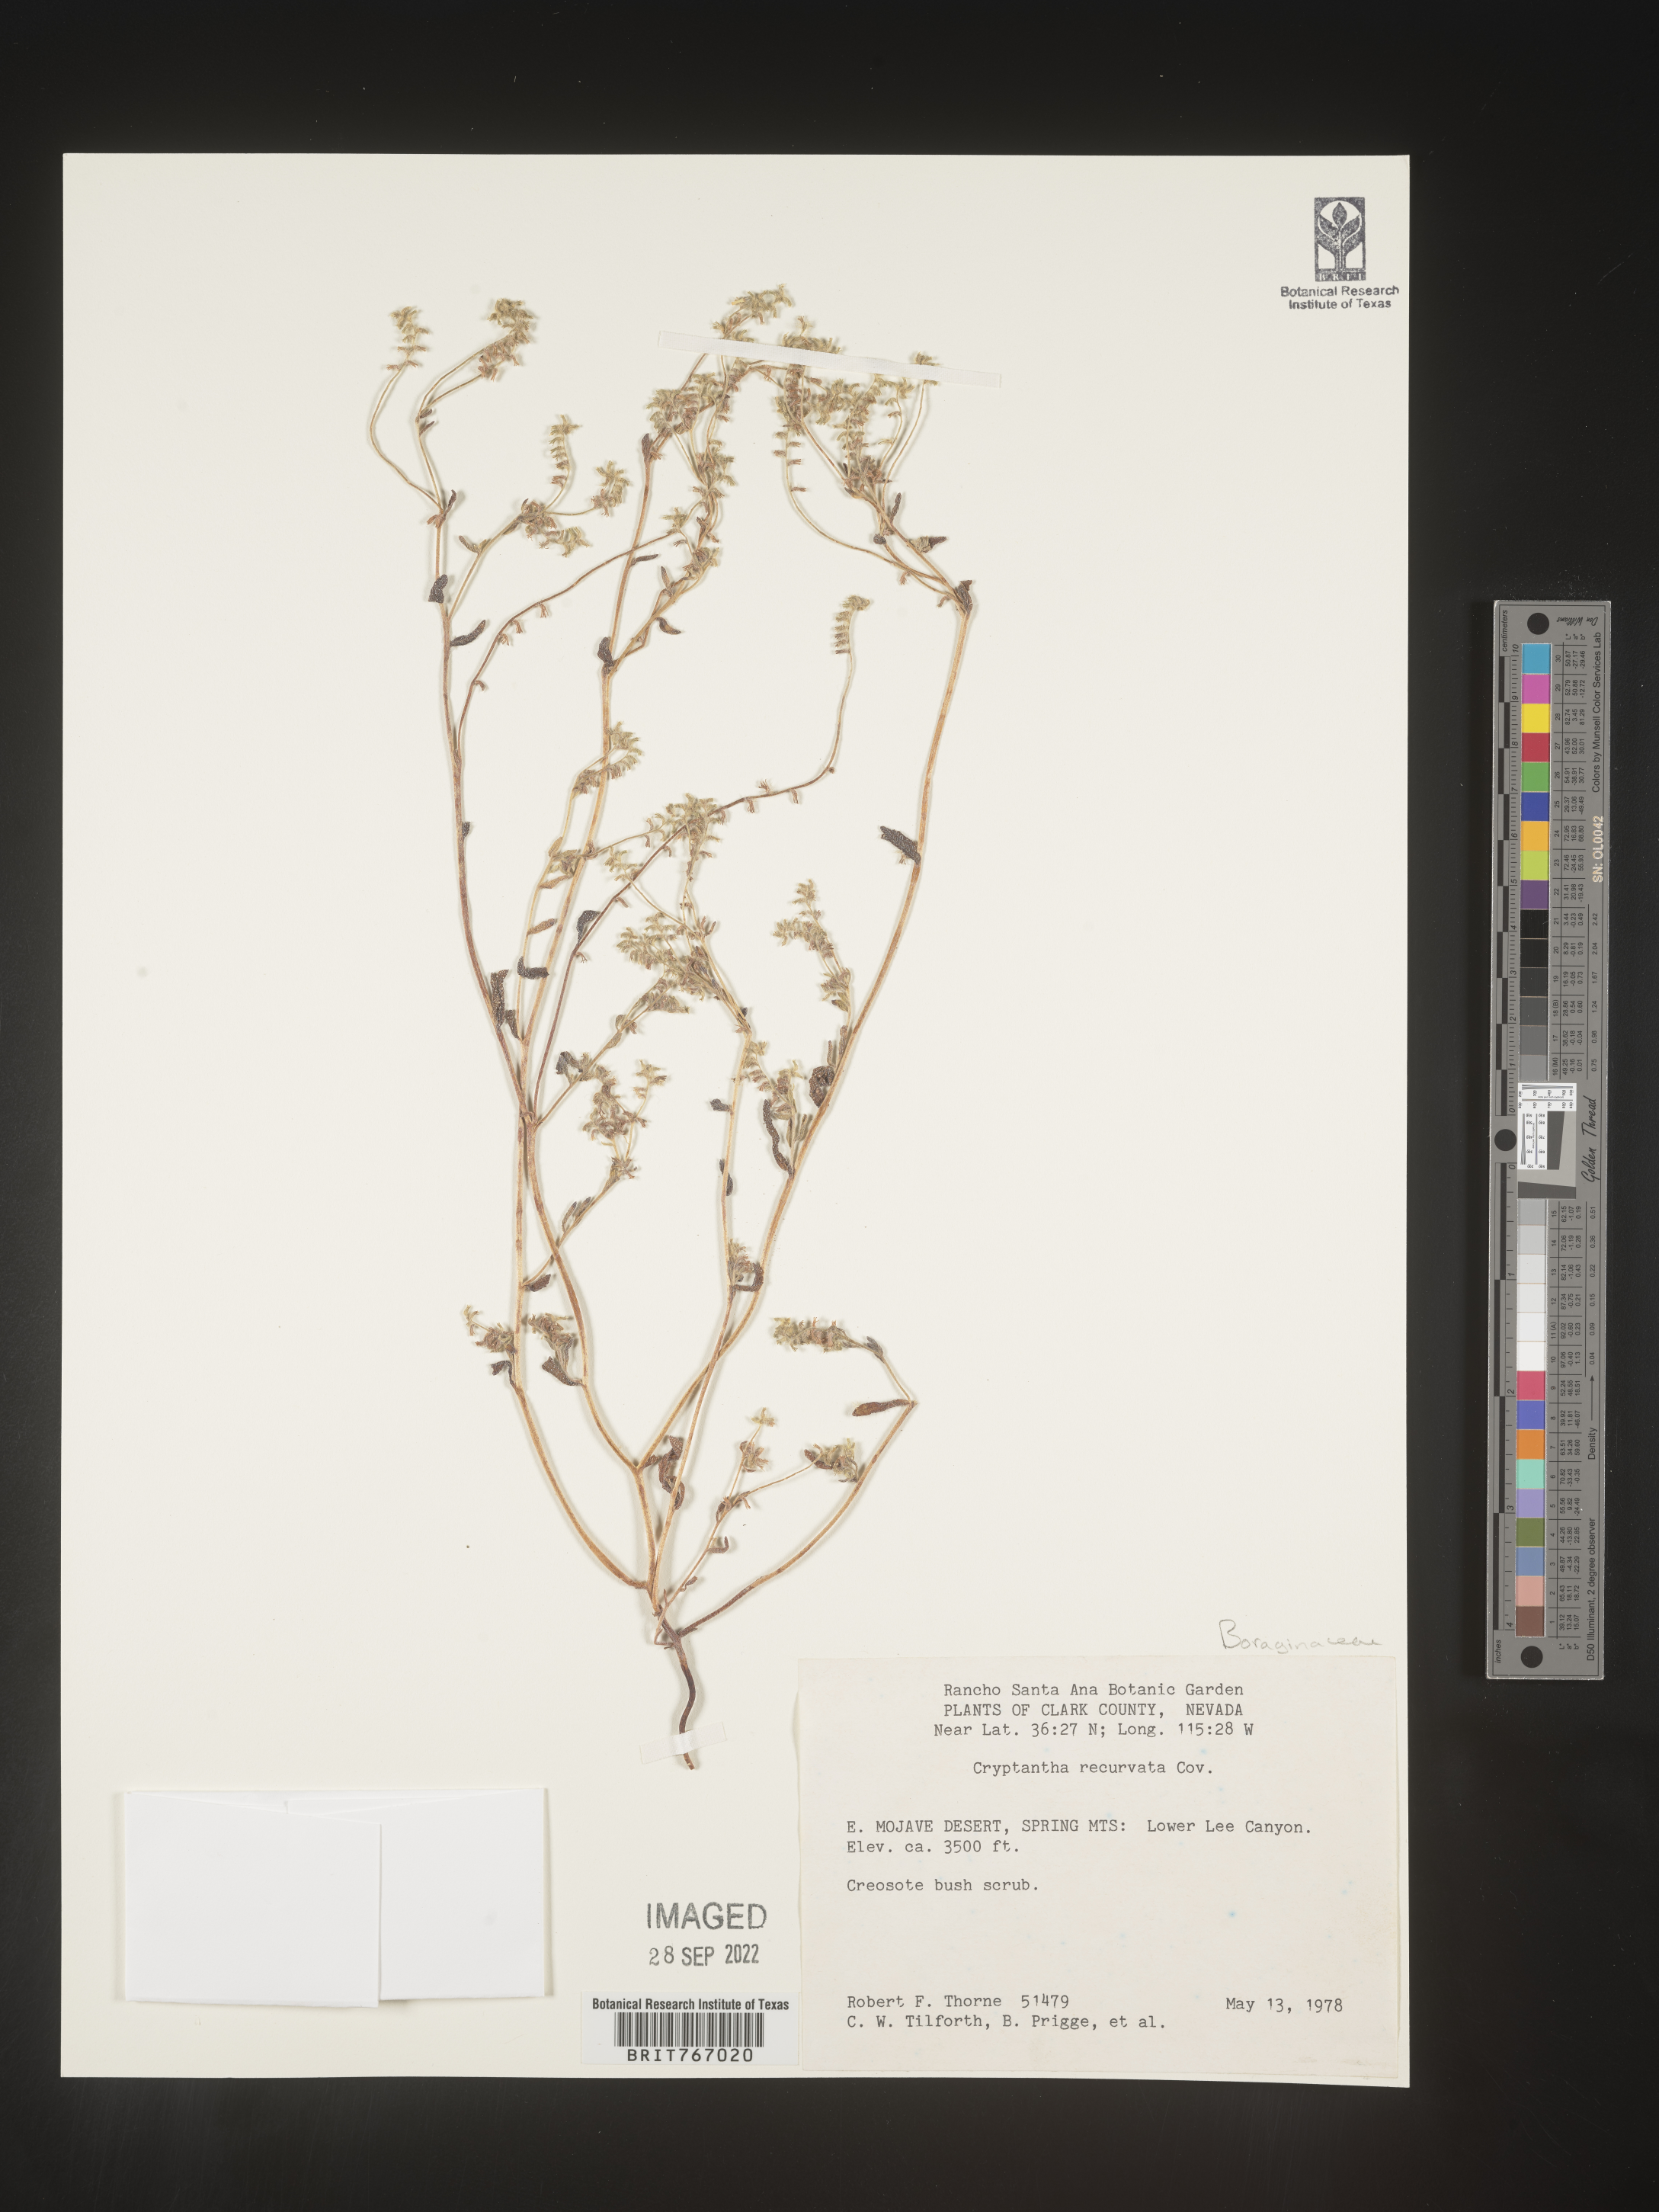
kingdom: Plantae
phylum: Tracheophyta
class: Magnoliopsida
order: Boraginales
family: Boraginaceae
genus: Cryptantha
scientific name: Cryptantha
